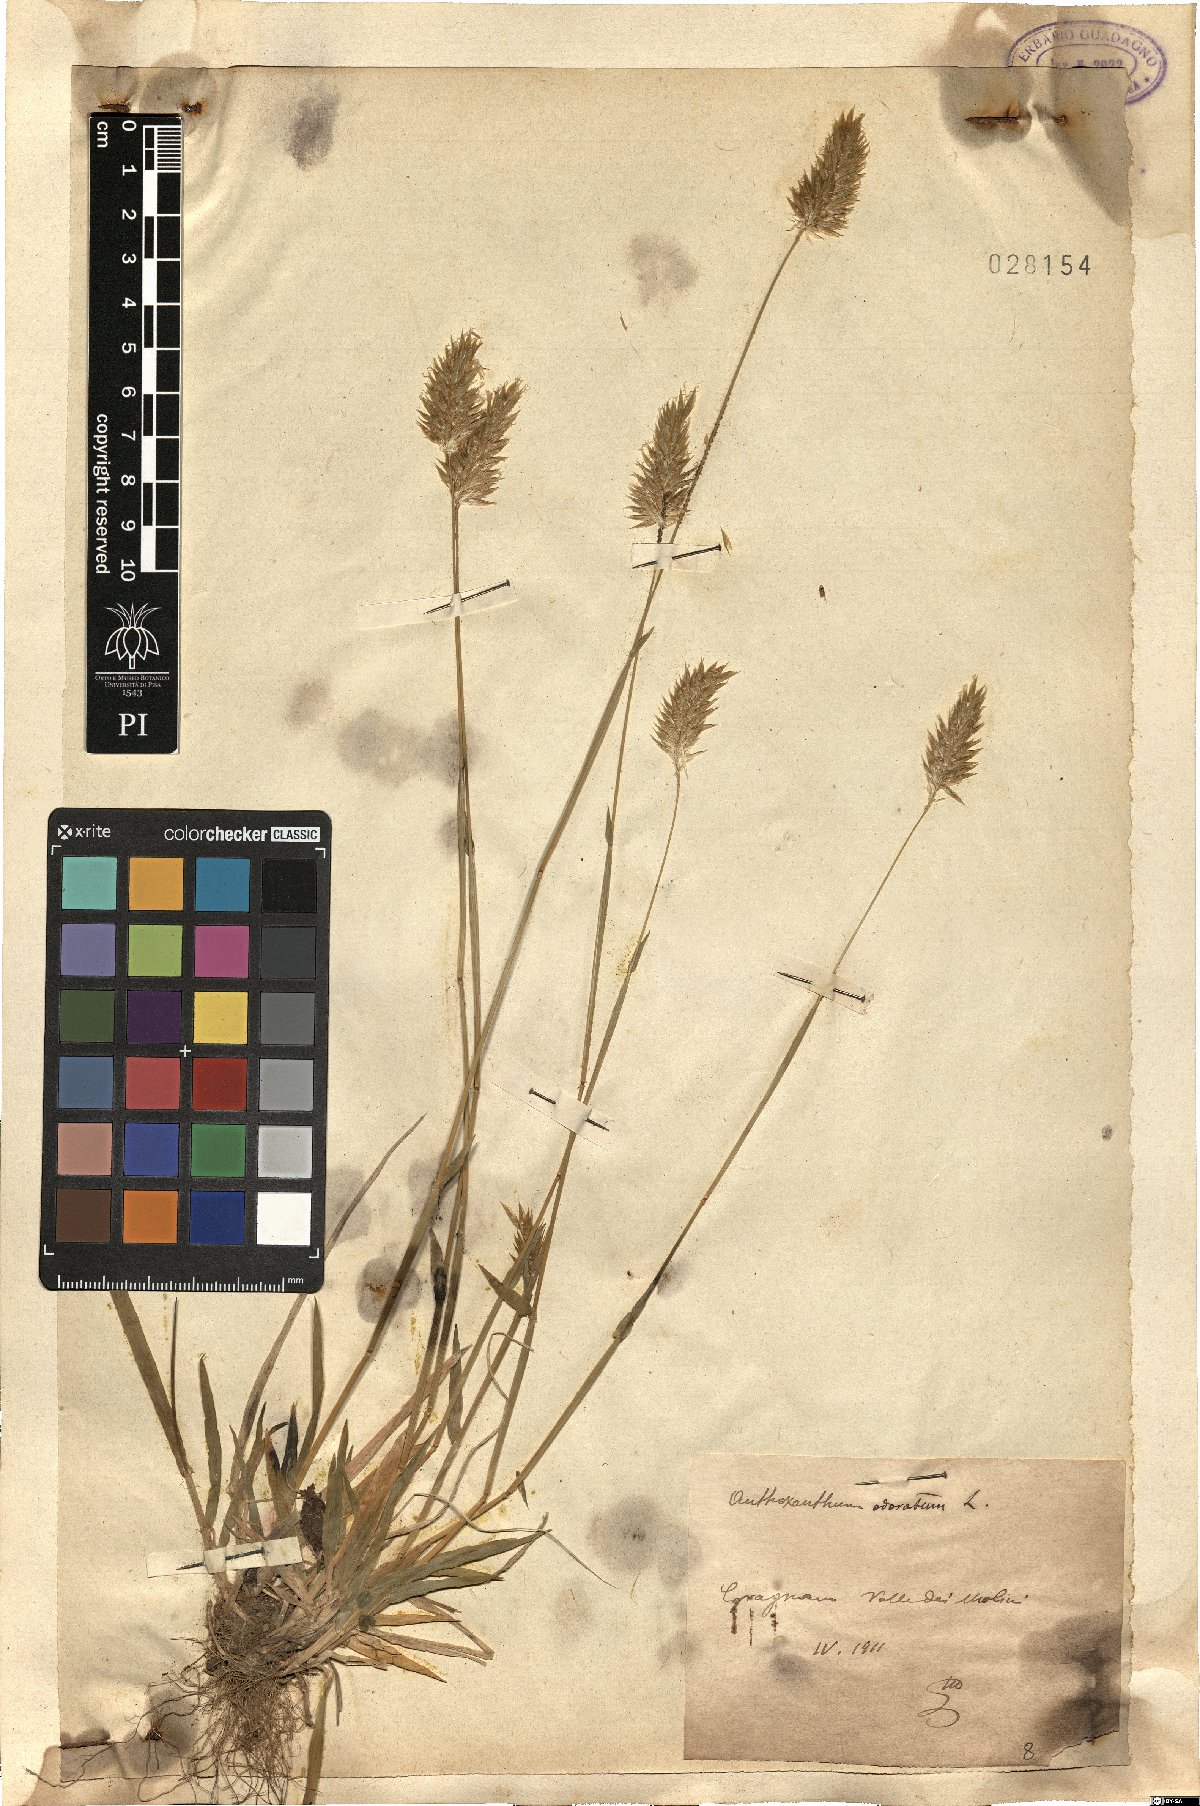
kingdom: Plantae
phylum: Tracheophyta
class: Liliopsida
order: Poales
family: Poaceae
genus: Anthoxanthum
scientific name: Anthoxanthum odoratum
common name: Sweet vernalgrass
